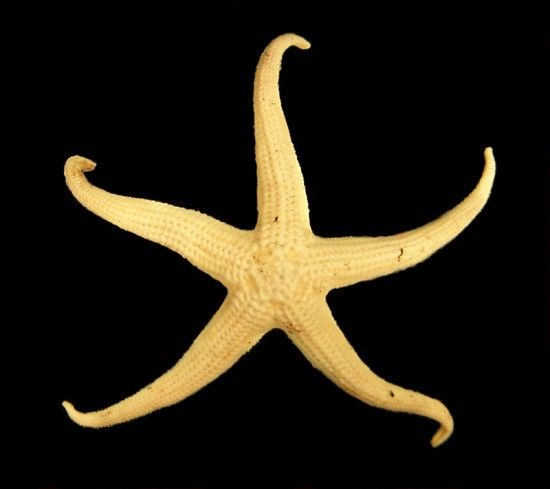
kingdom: Animalia
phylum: Echinodermata
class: Asteroidea
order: Forcipulatida
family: Stichasteridae
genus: Neomorphaster
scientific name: Neomorphaster forcipatus
